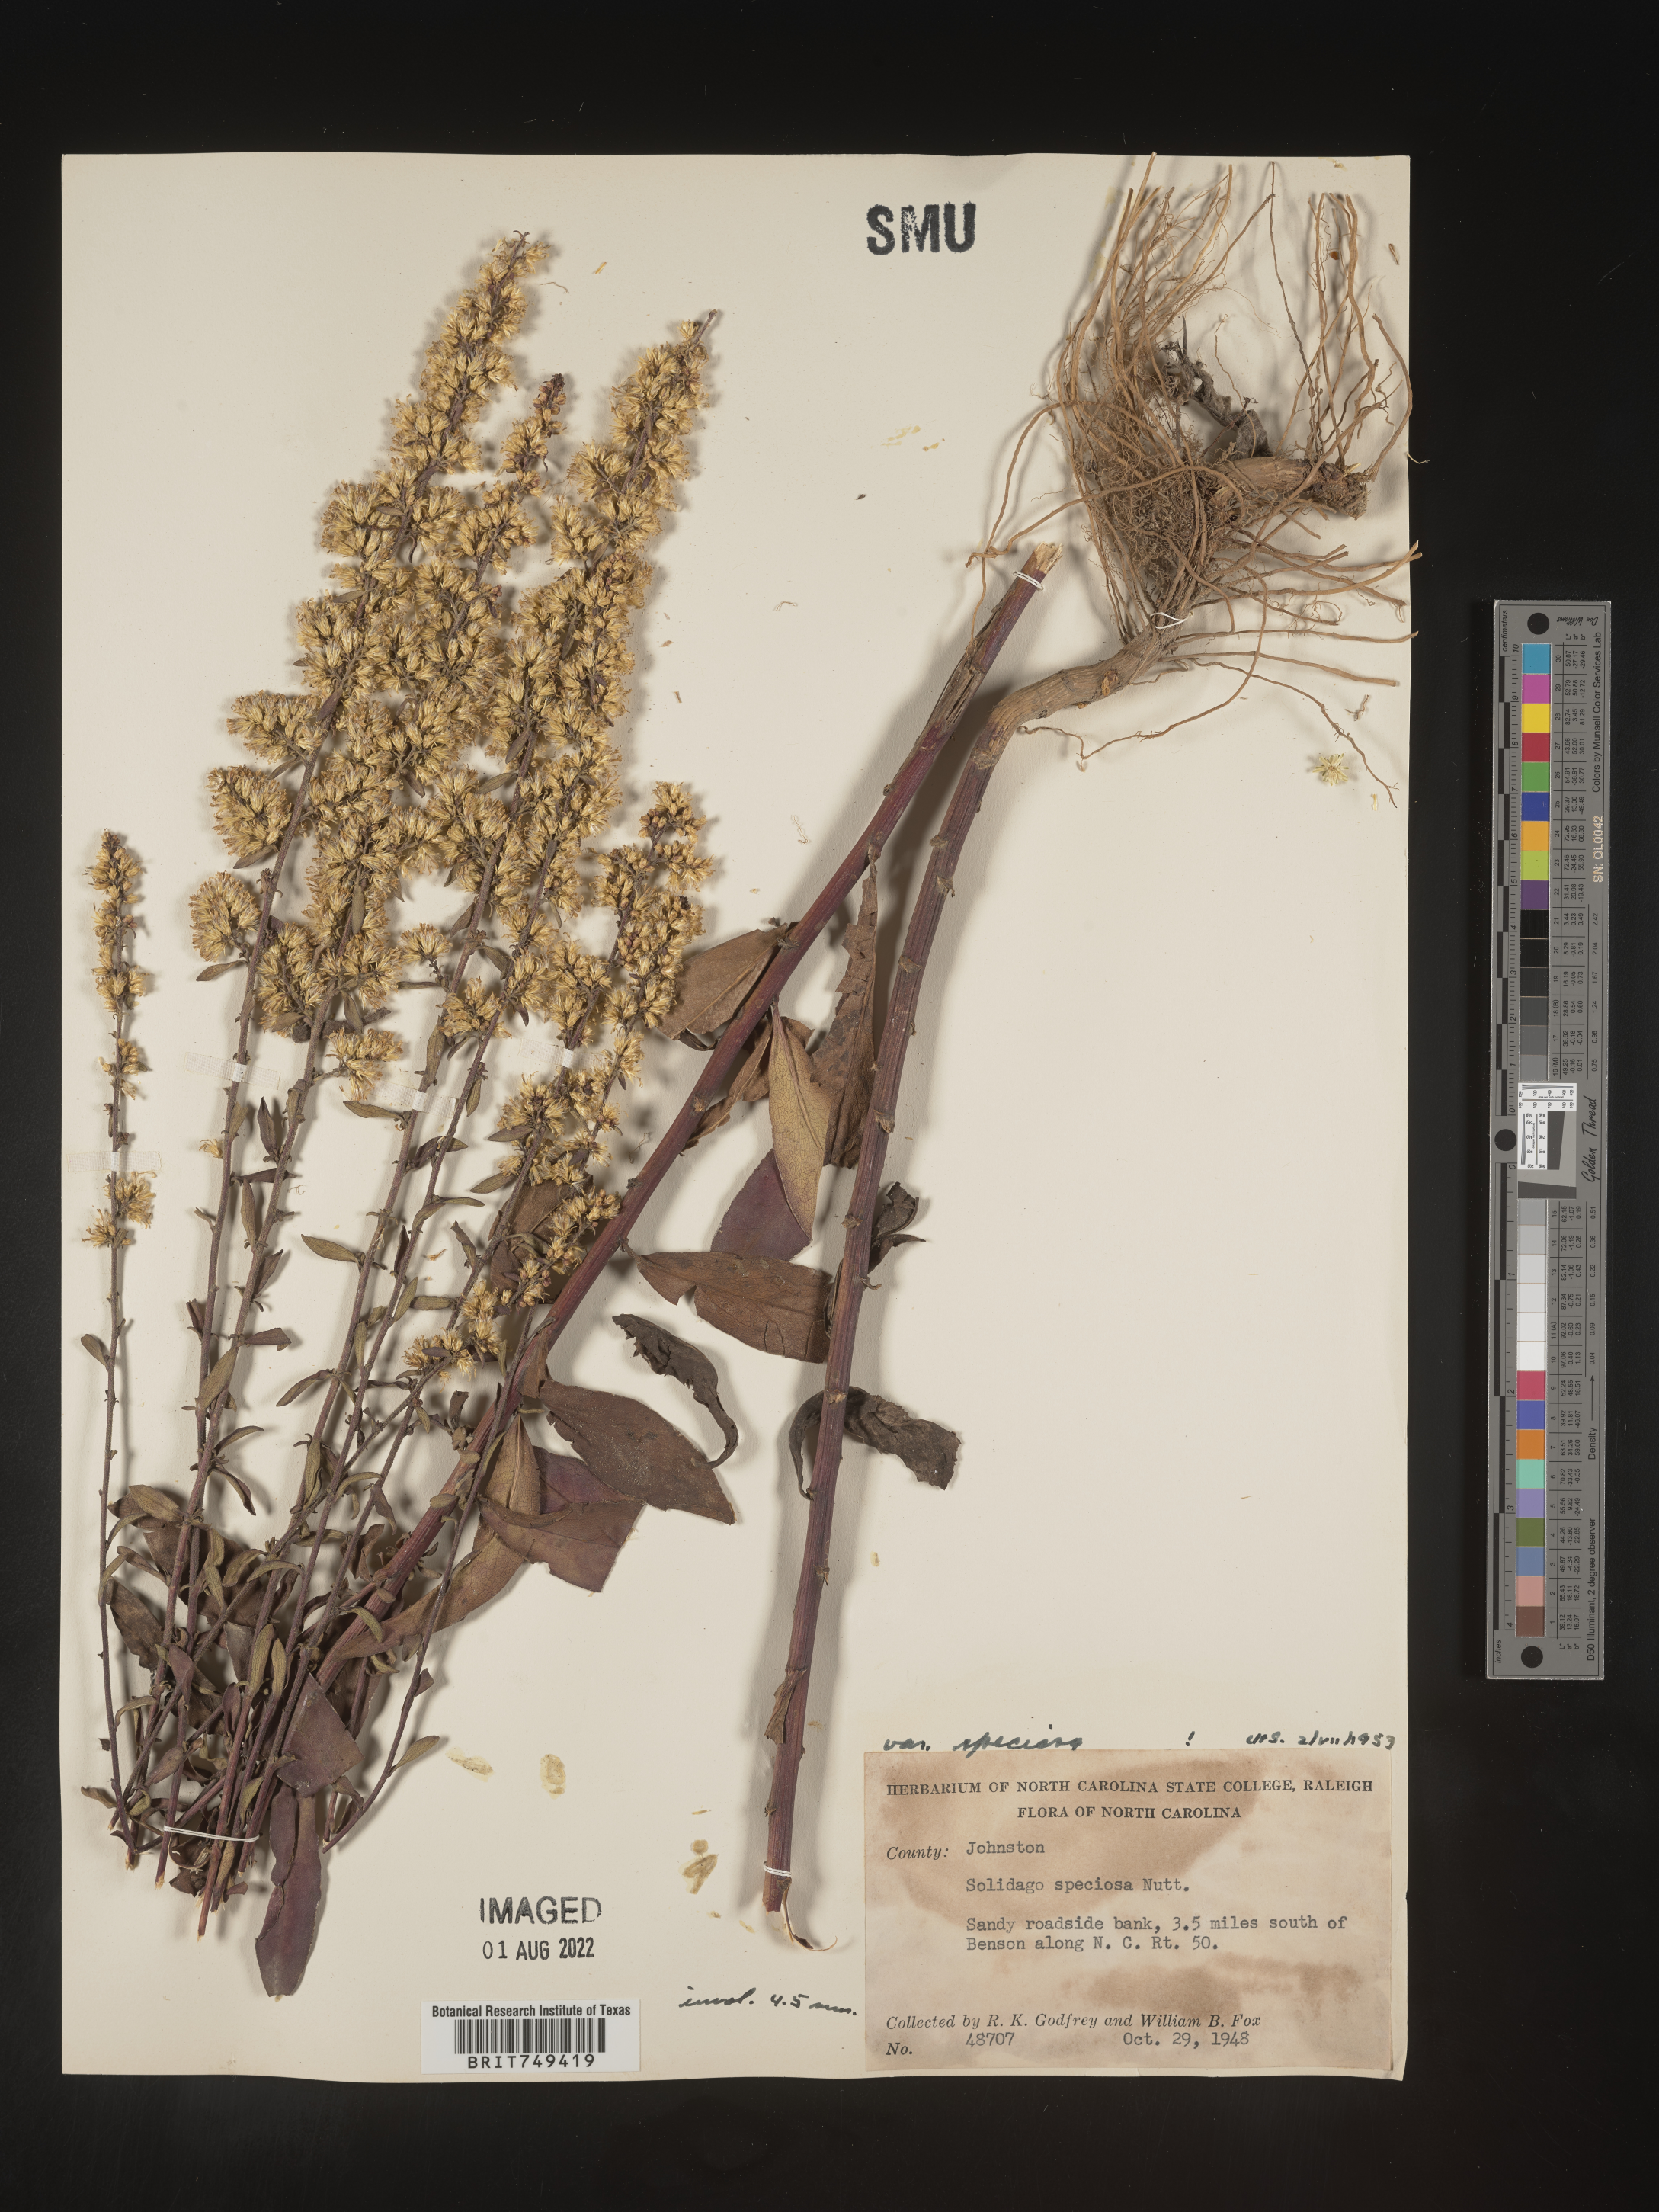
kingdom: Plantae
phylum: Tracheophyta
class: Magnoliopsida
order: Asterales
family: Asteraceae
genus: Solidago
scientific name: Solidago speciosa
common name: Showy goldenrod
